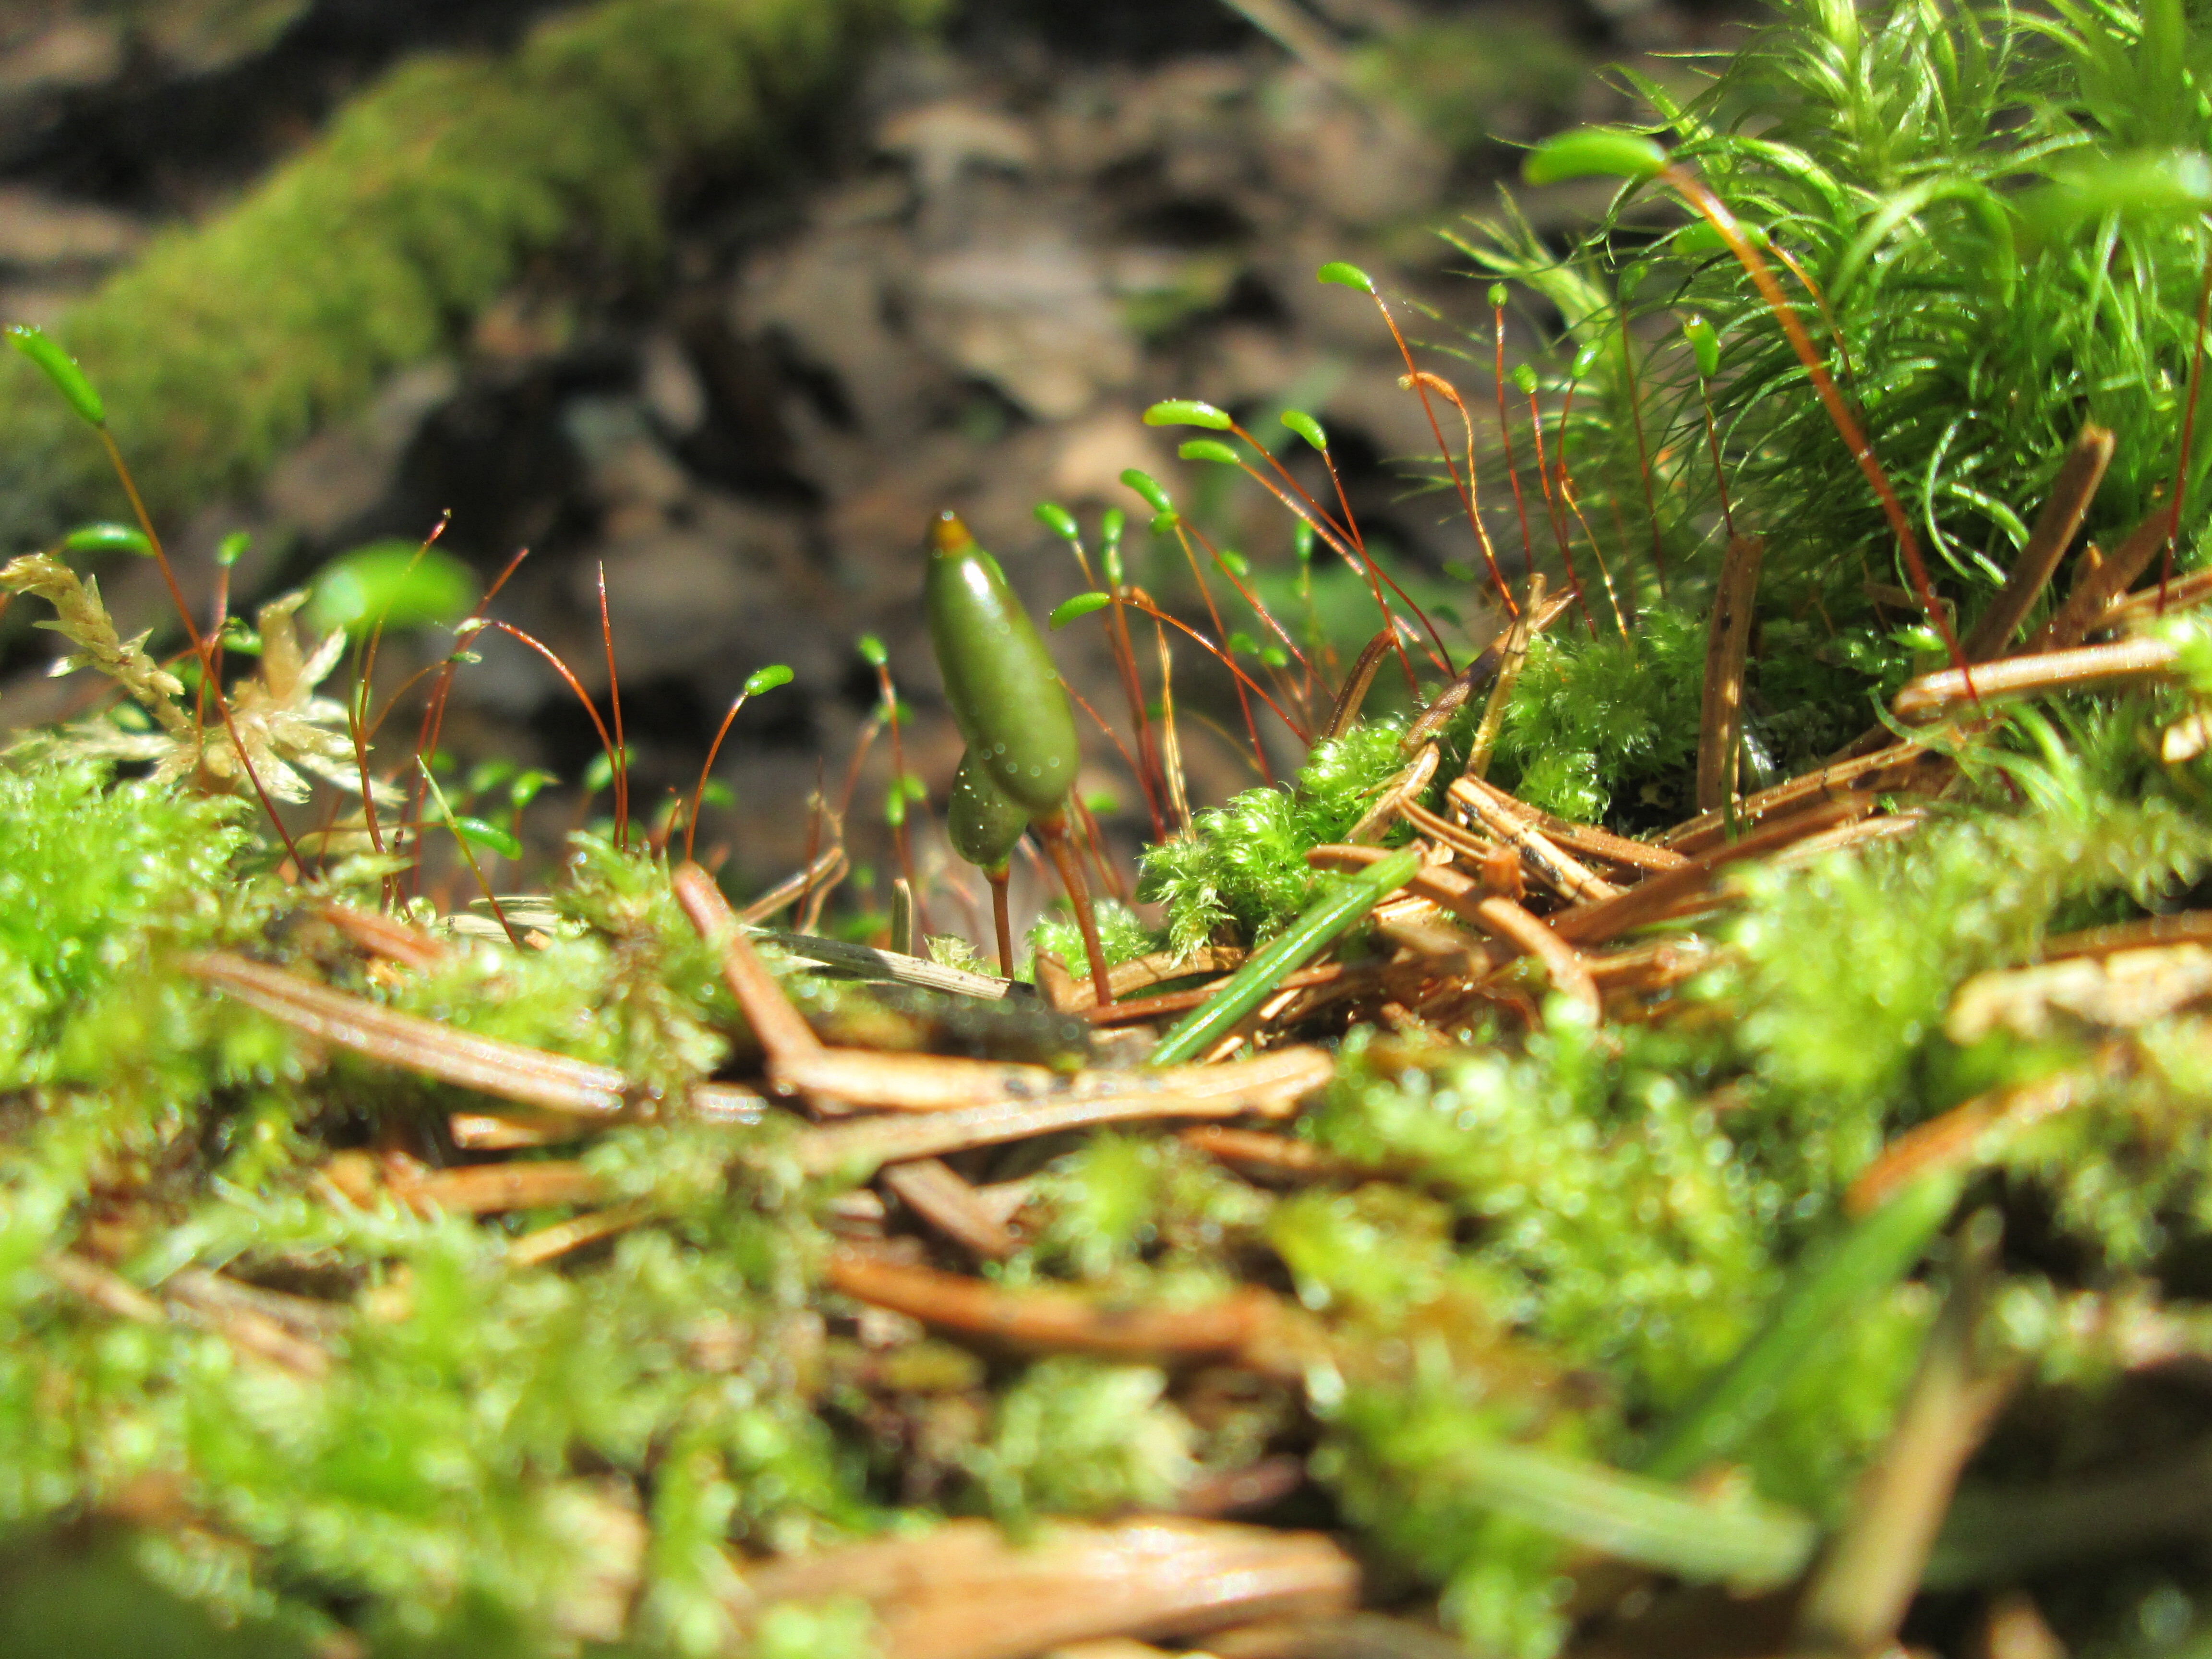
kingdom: Plantae
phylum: Bryophyta
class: Bryopsida
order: Buxbaumiales
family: Buxbaumiaceae
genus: Buxbaumia
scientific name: Buxbaumia viridis
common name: Green shield-moss
